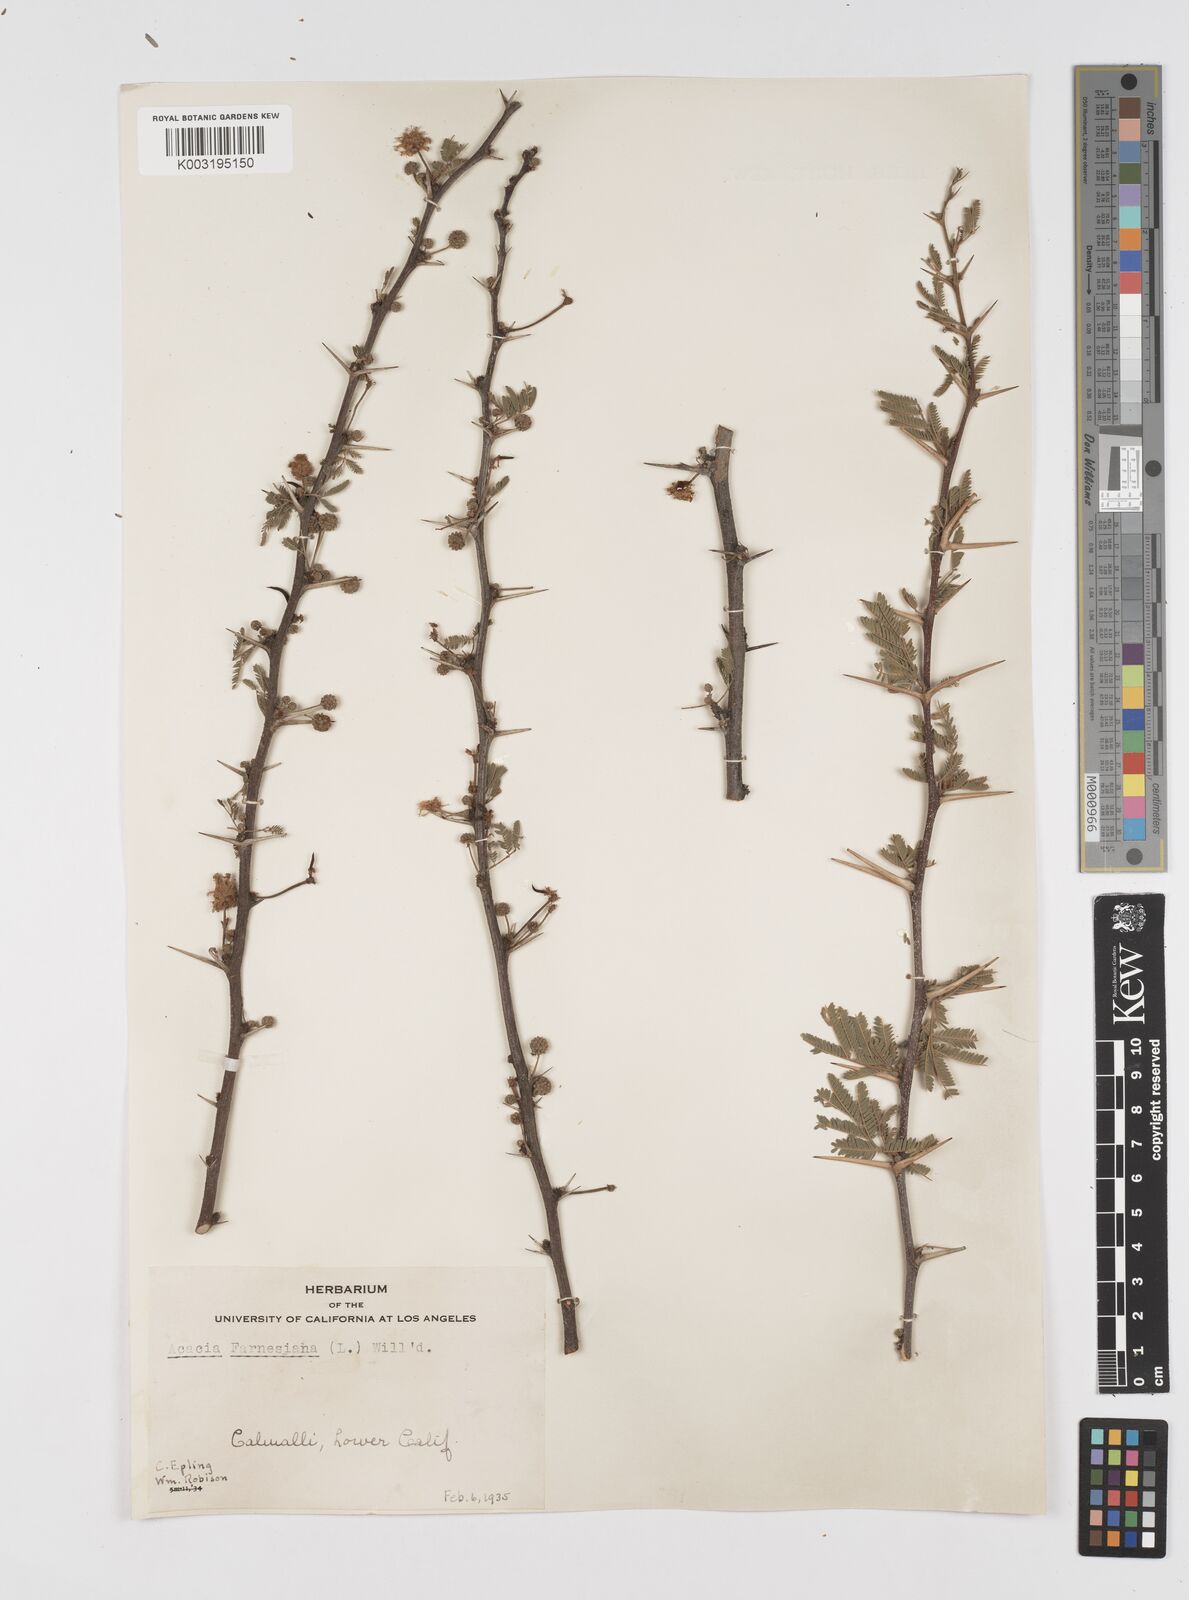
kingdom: Plantae
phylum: Tracheophyta
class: Magnoliopsida
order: Fabales
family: Fabaceae
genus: Vachellia
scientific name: Vachellia farnesiana
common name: Sweet acacia
